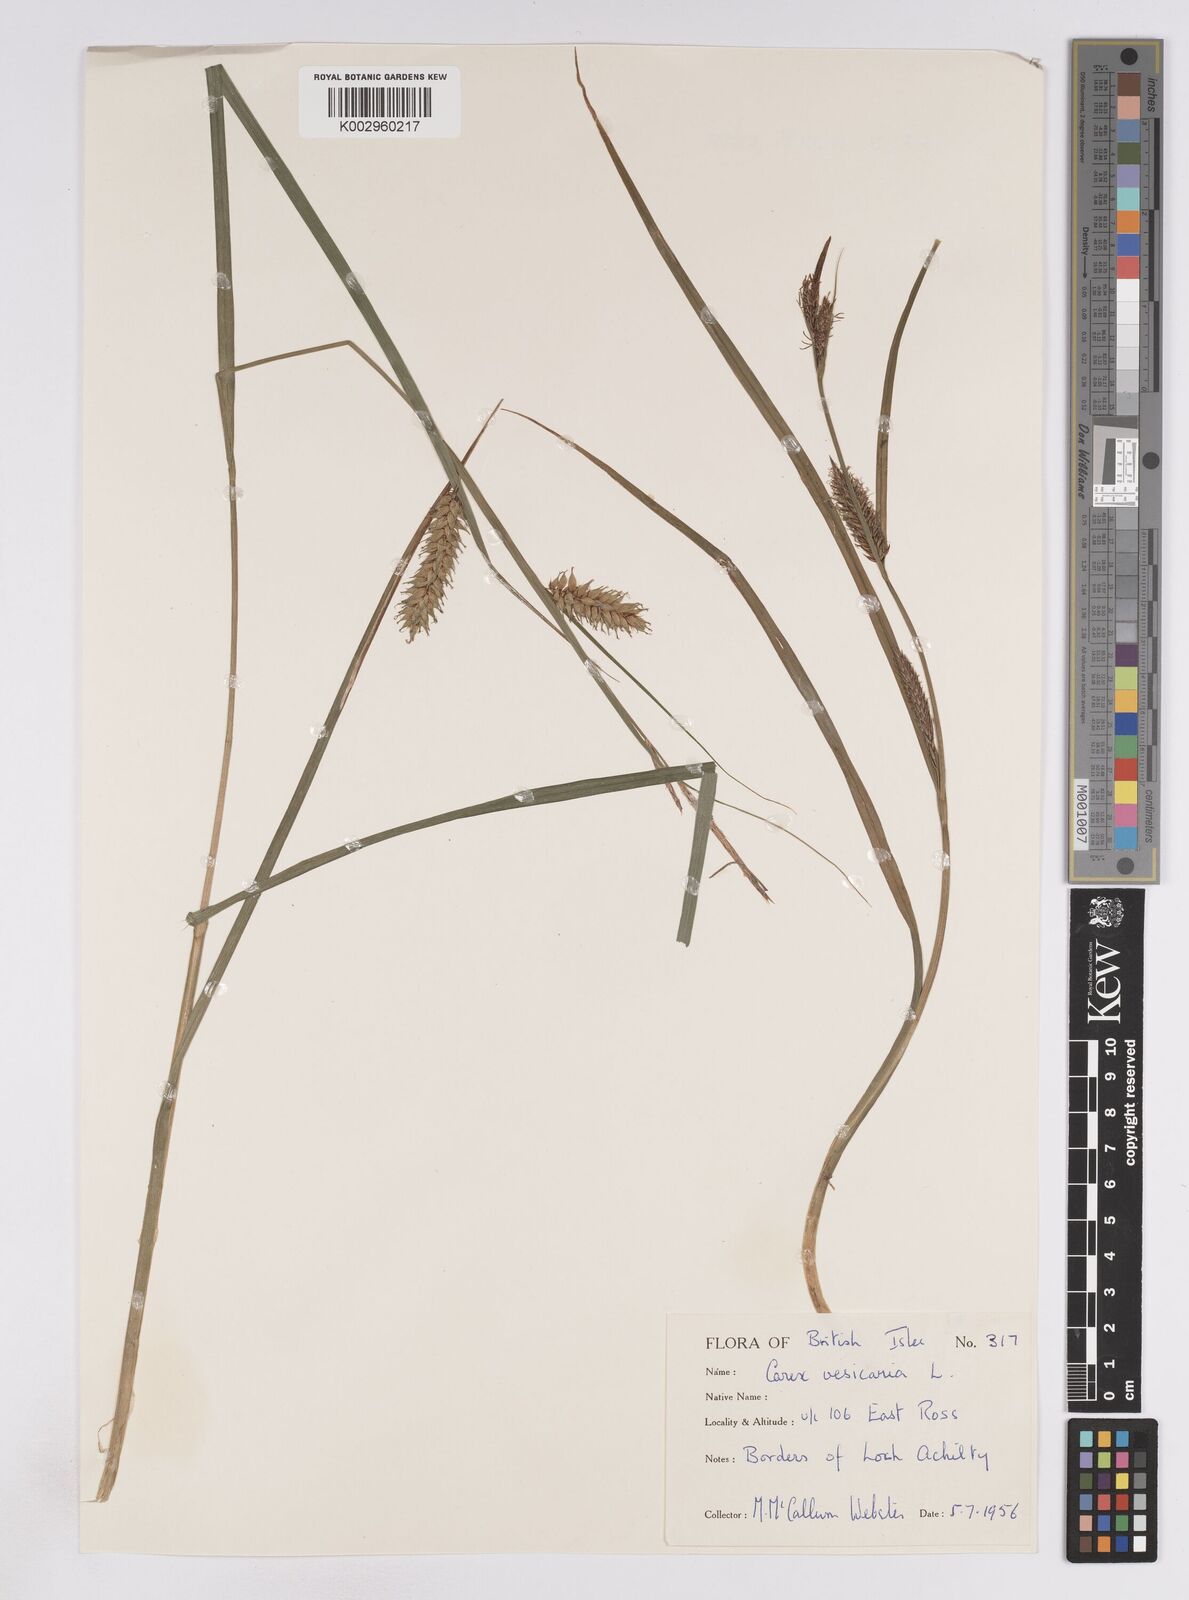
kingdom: Plantae
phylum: Tracheophyta
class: Liliopsida
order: Poales
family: Cyperaceae
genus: Carex
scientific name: Carex vesicaria
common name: Bladder-sedge
